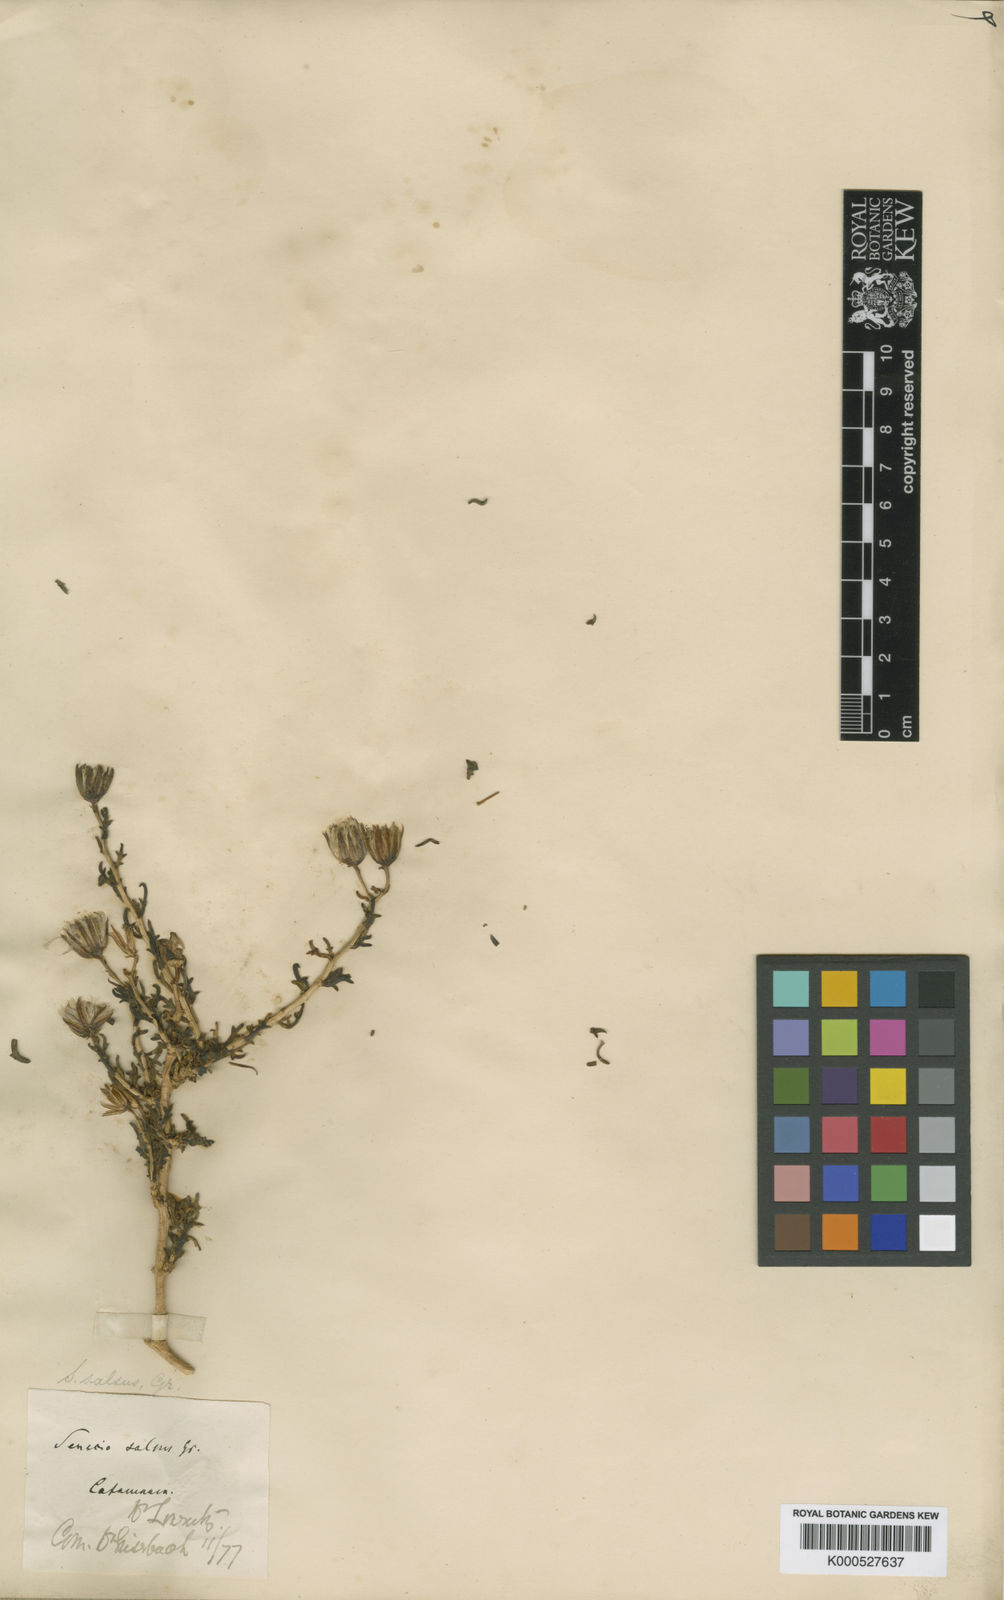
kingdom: Plantae
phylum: Tracheophyta
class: Magnoliopsida
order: Asterales
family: Asteraceae
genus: Senecio
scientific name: Senecio subulatus
